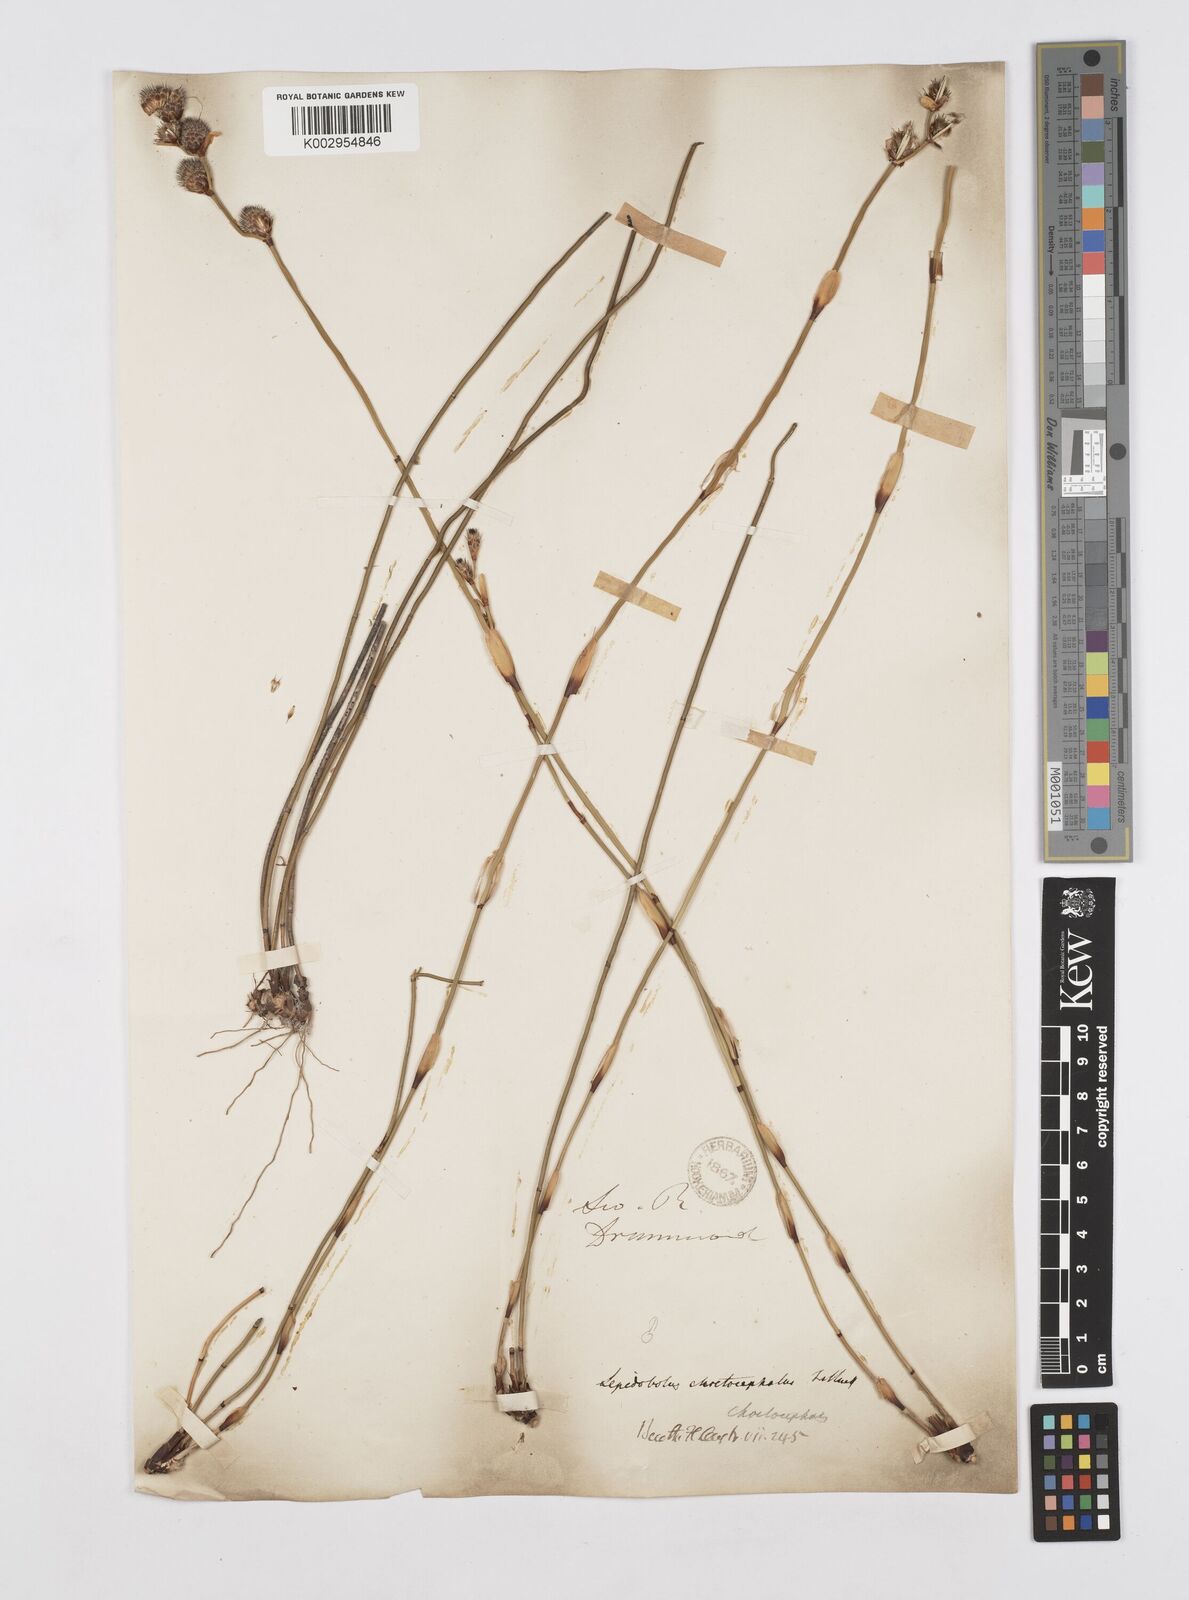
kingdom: Plantae
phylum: Tracheophyta
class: Liliopsida
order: Poales
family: Restionaceae
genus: Lepidobolus
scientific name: Lepidobolus chaetocephalus
